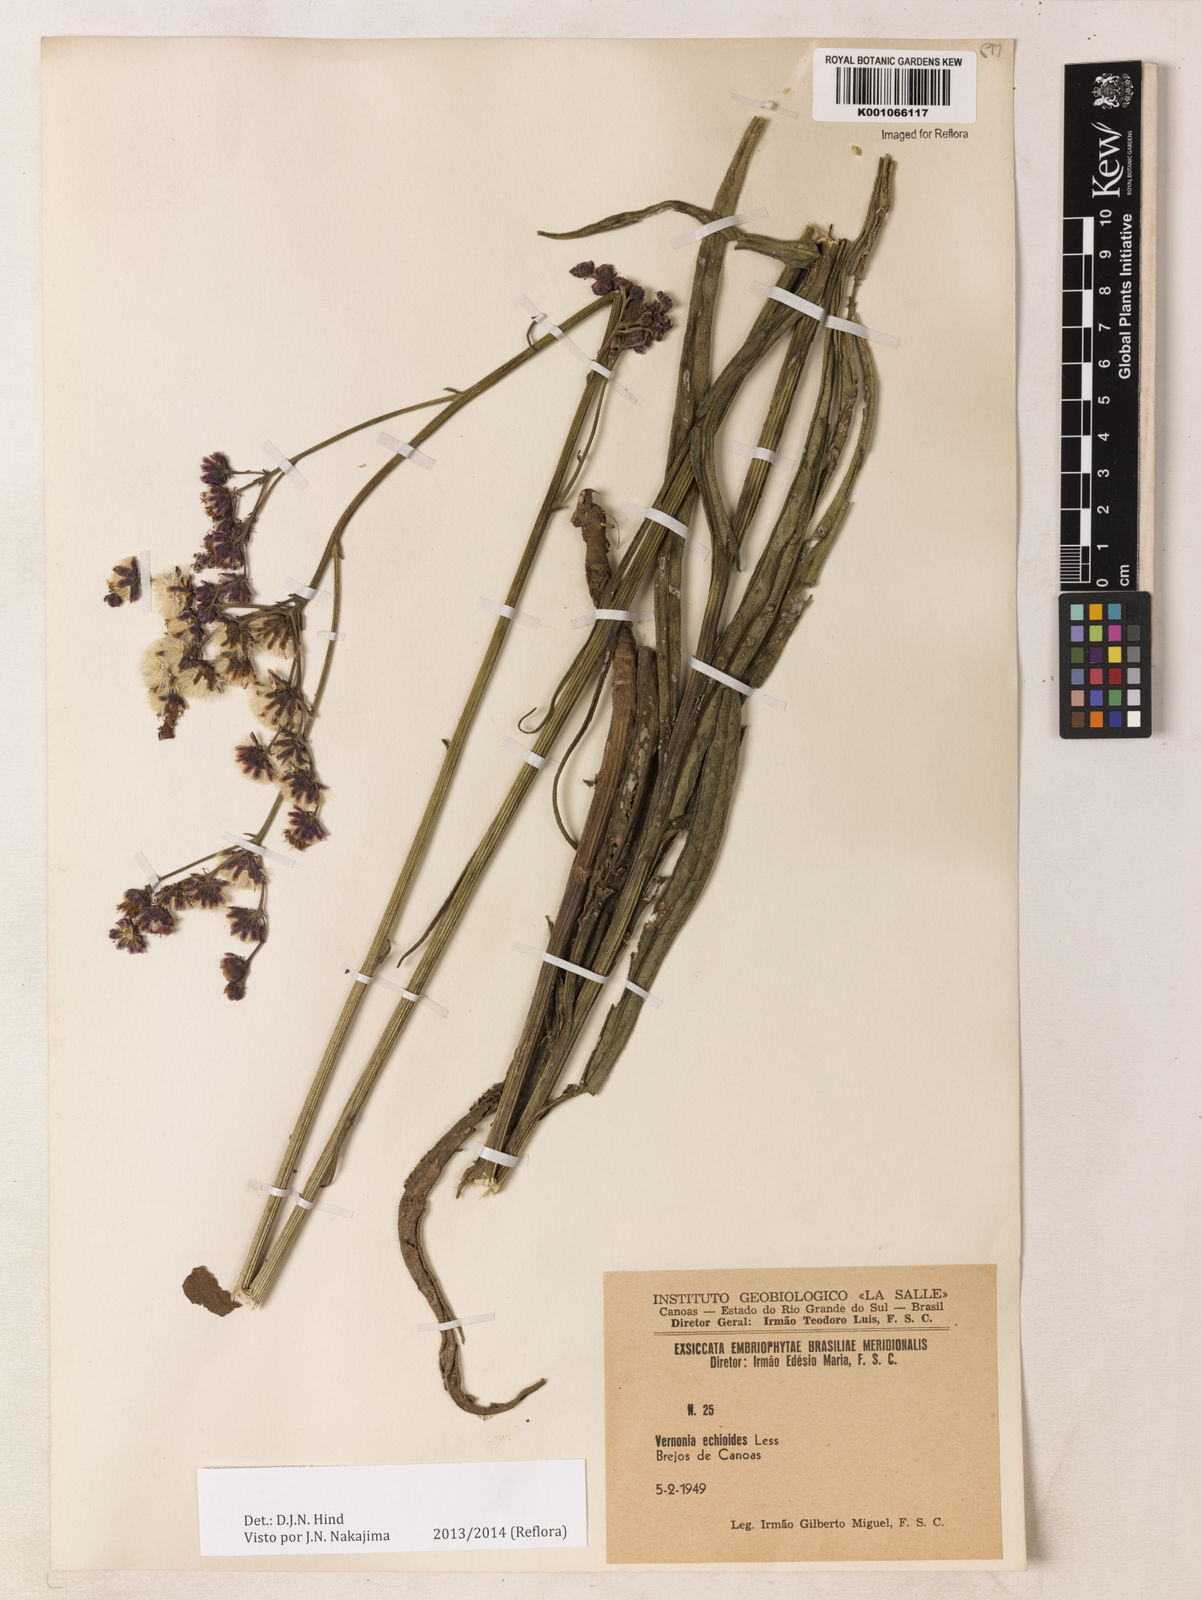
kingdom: Plantae
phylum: Tracheophyta
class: Magnoliopsida
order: Asterales
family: Asteraceae
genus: Vernonia
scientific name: Vernonia echioides
